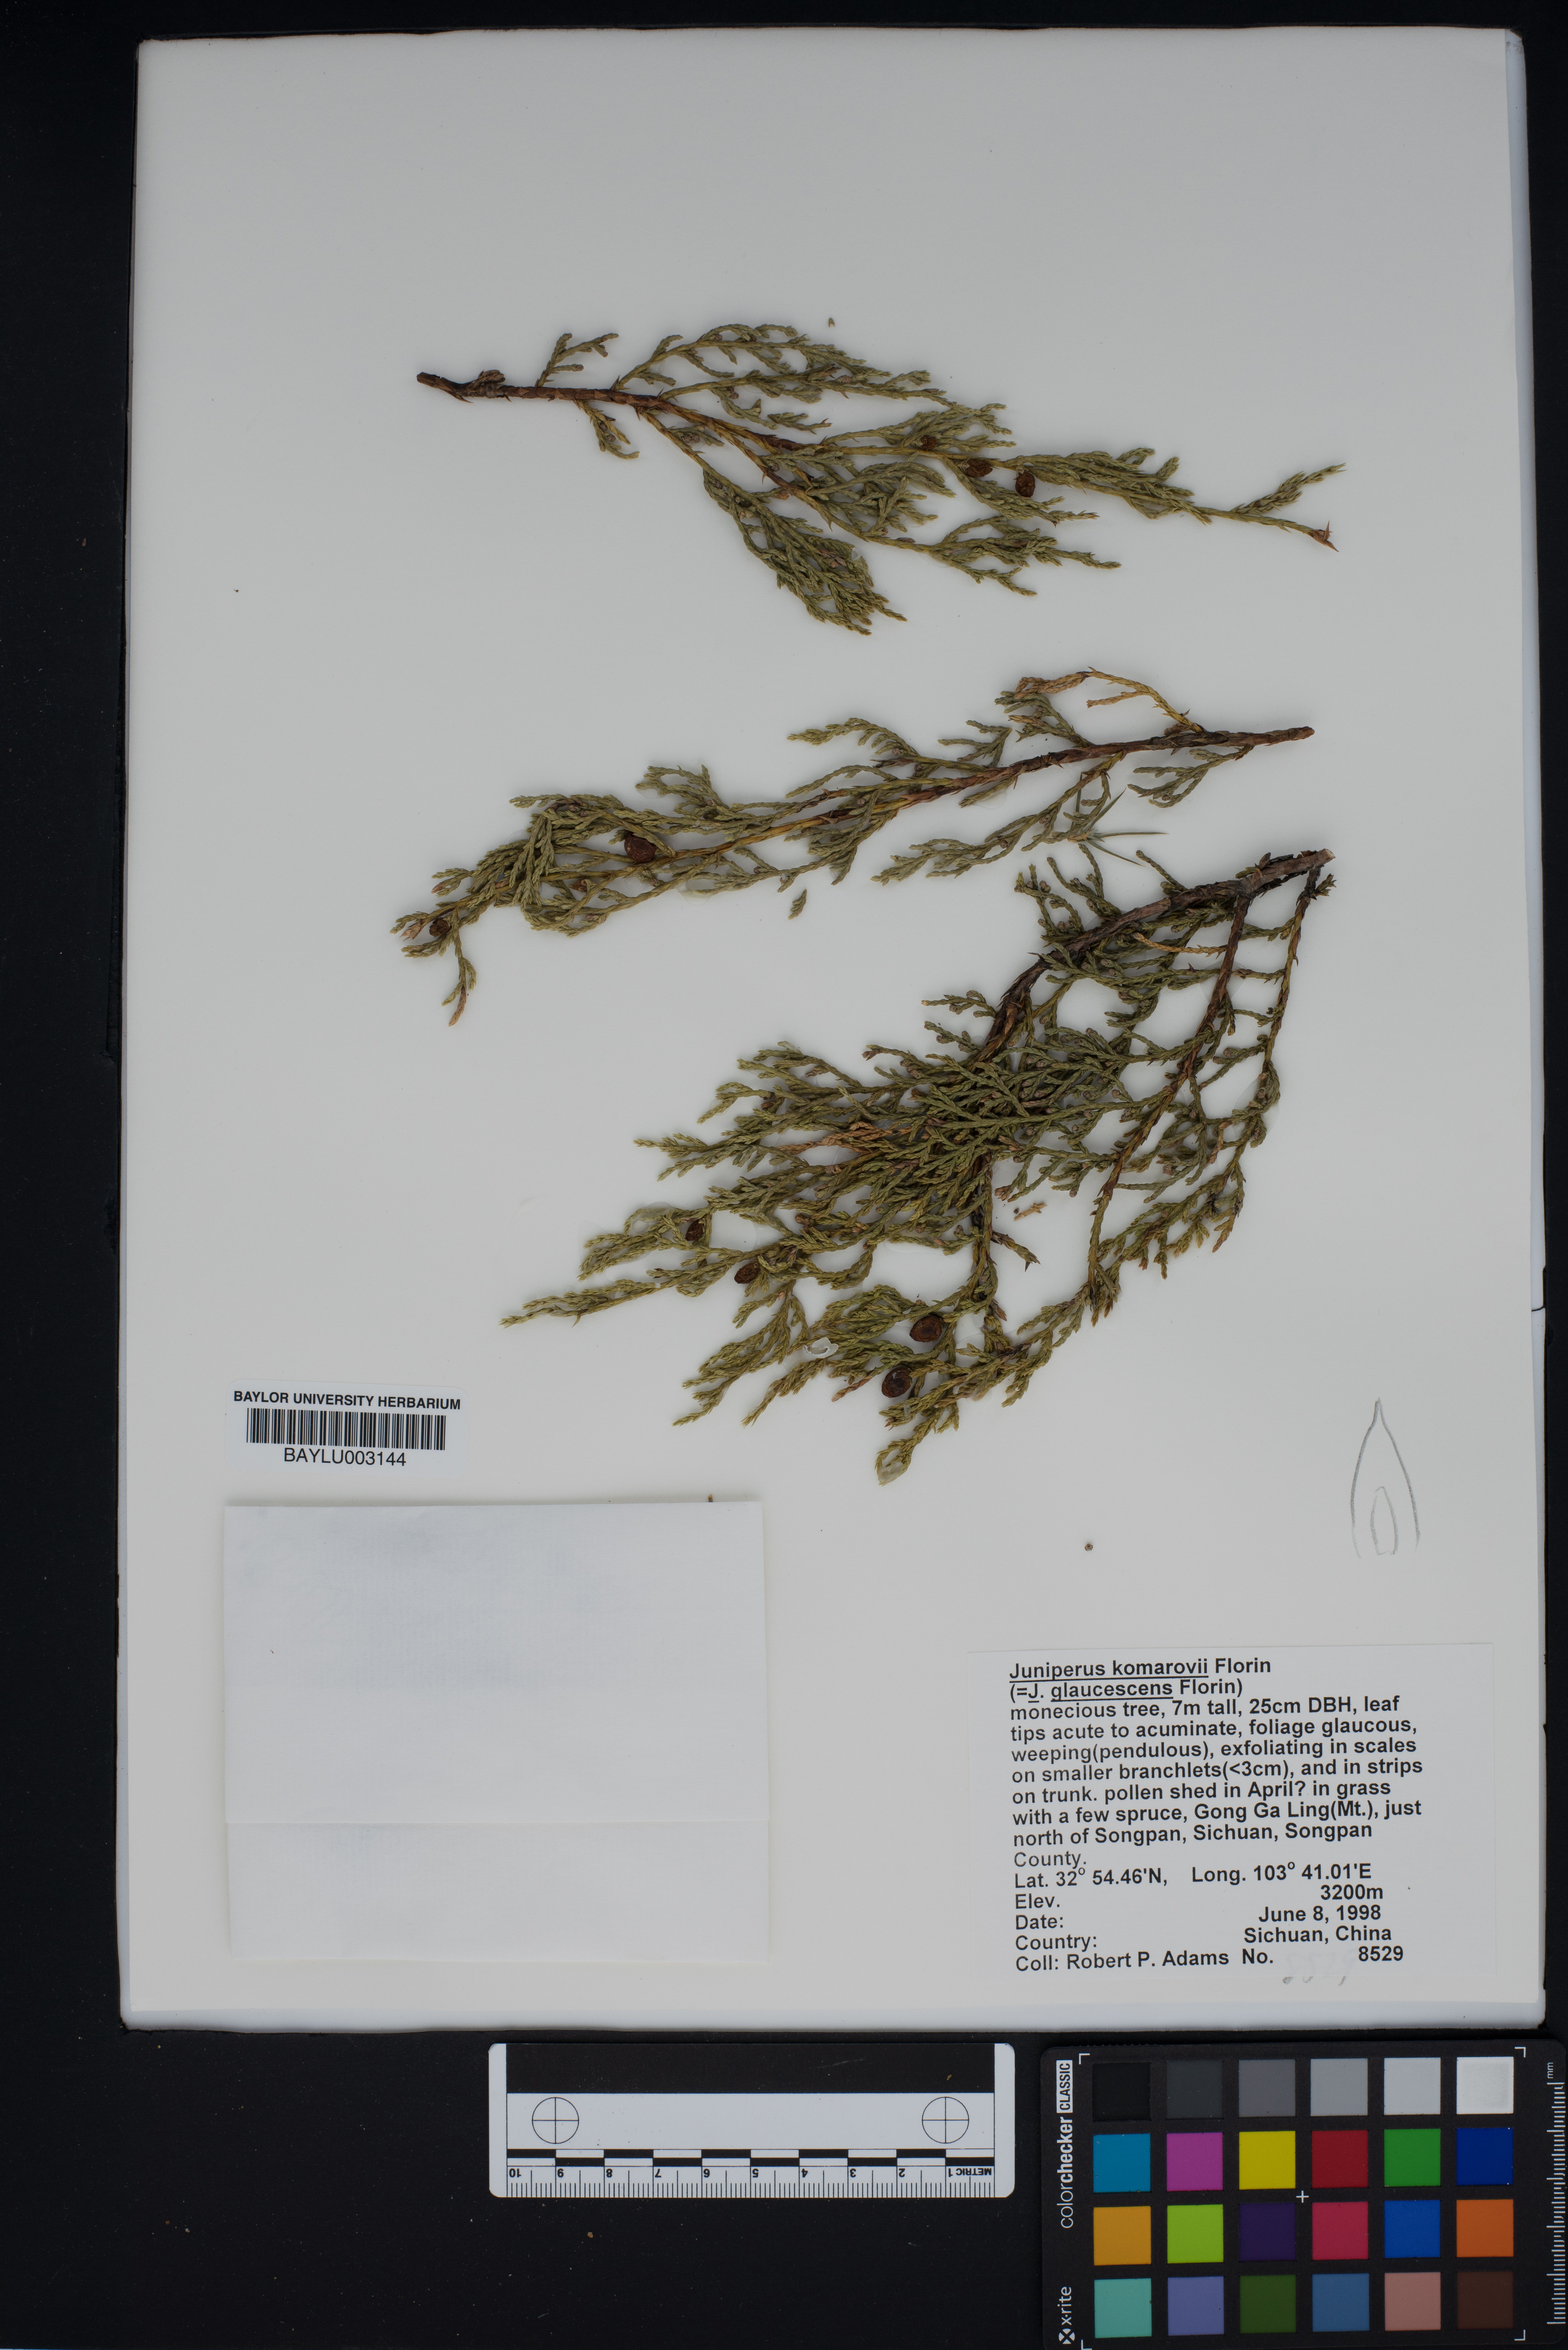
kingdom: Plantae
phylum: Tracheophyta
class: Pinopsida
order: Pinales
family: Cupressaceae
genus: Juniperus
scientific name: Juniperus komarovii
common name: Komarov's juniper
